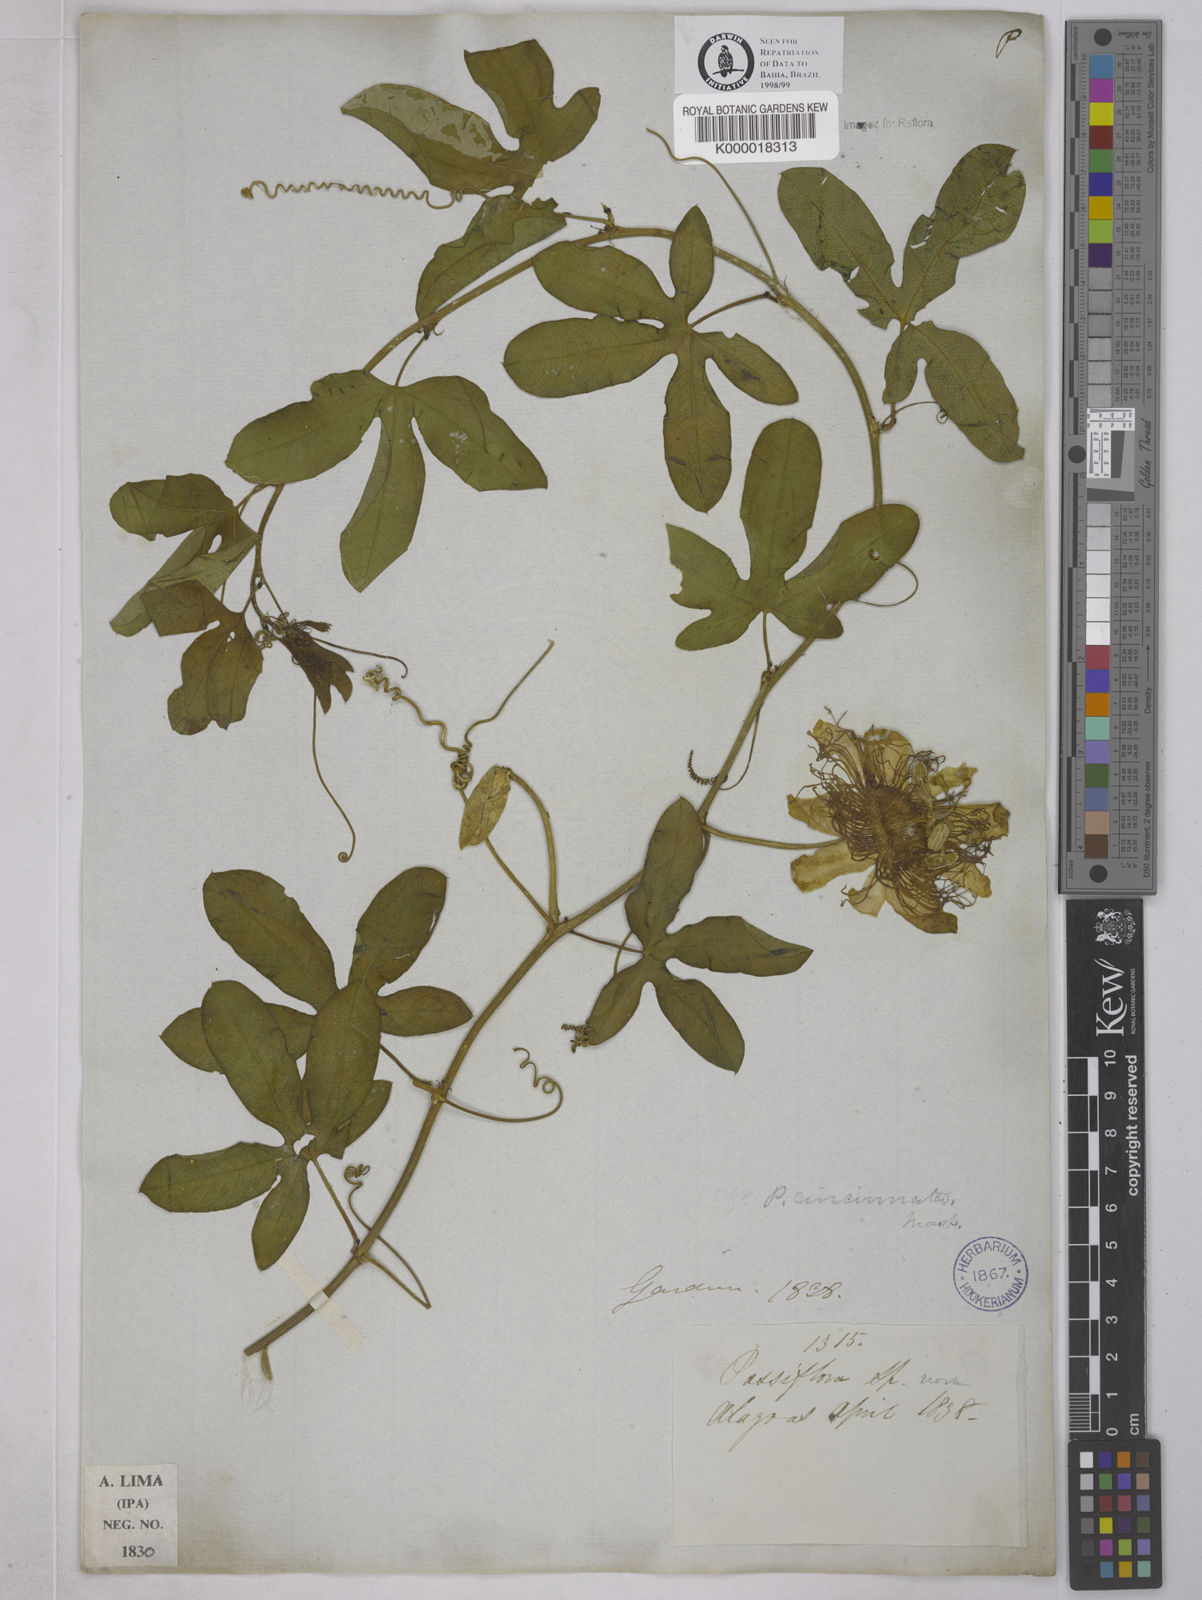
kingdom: Plantae
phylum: Tracheophyta
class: Magnoliopsida
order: Malpighiales
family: Passifloraceae
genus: Passiflora
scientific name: Passiflora cincinnata
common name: Crato passionvine
